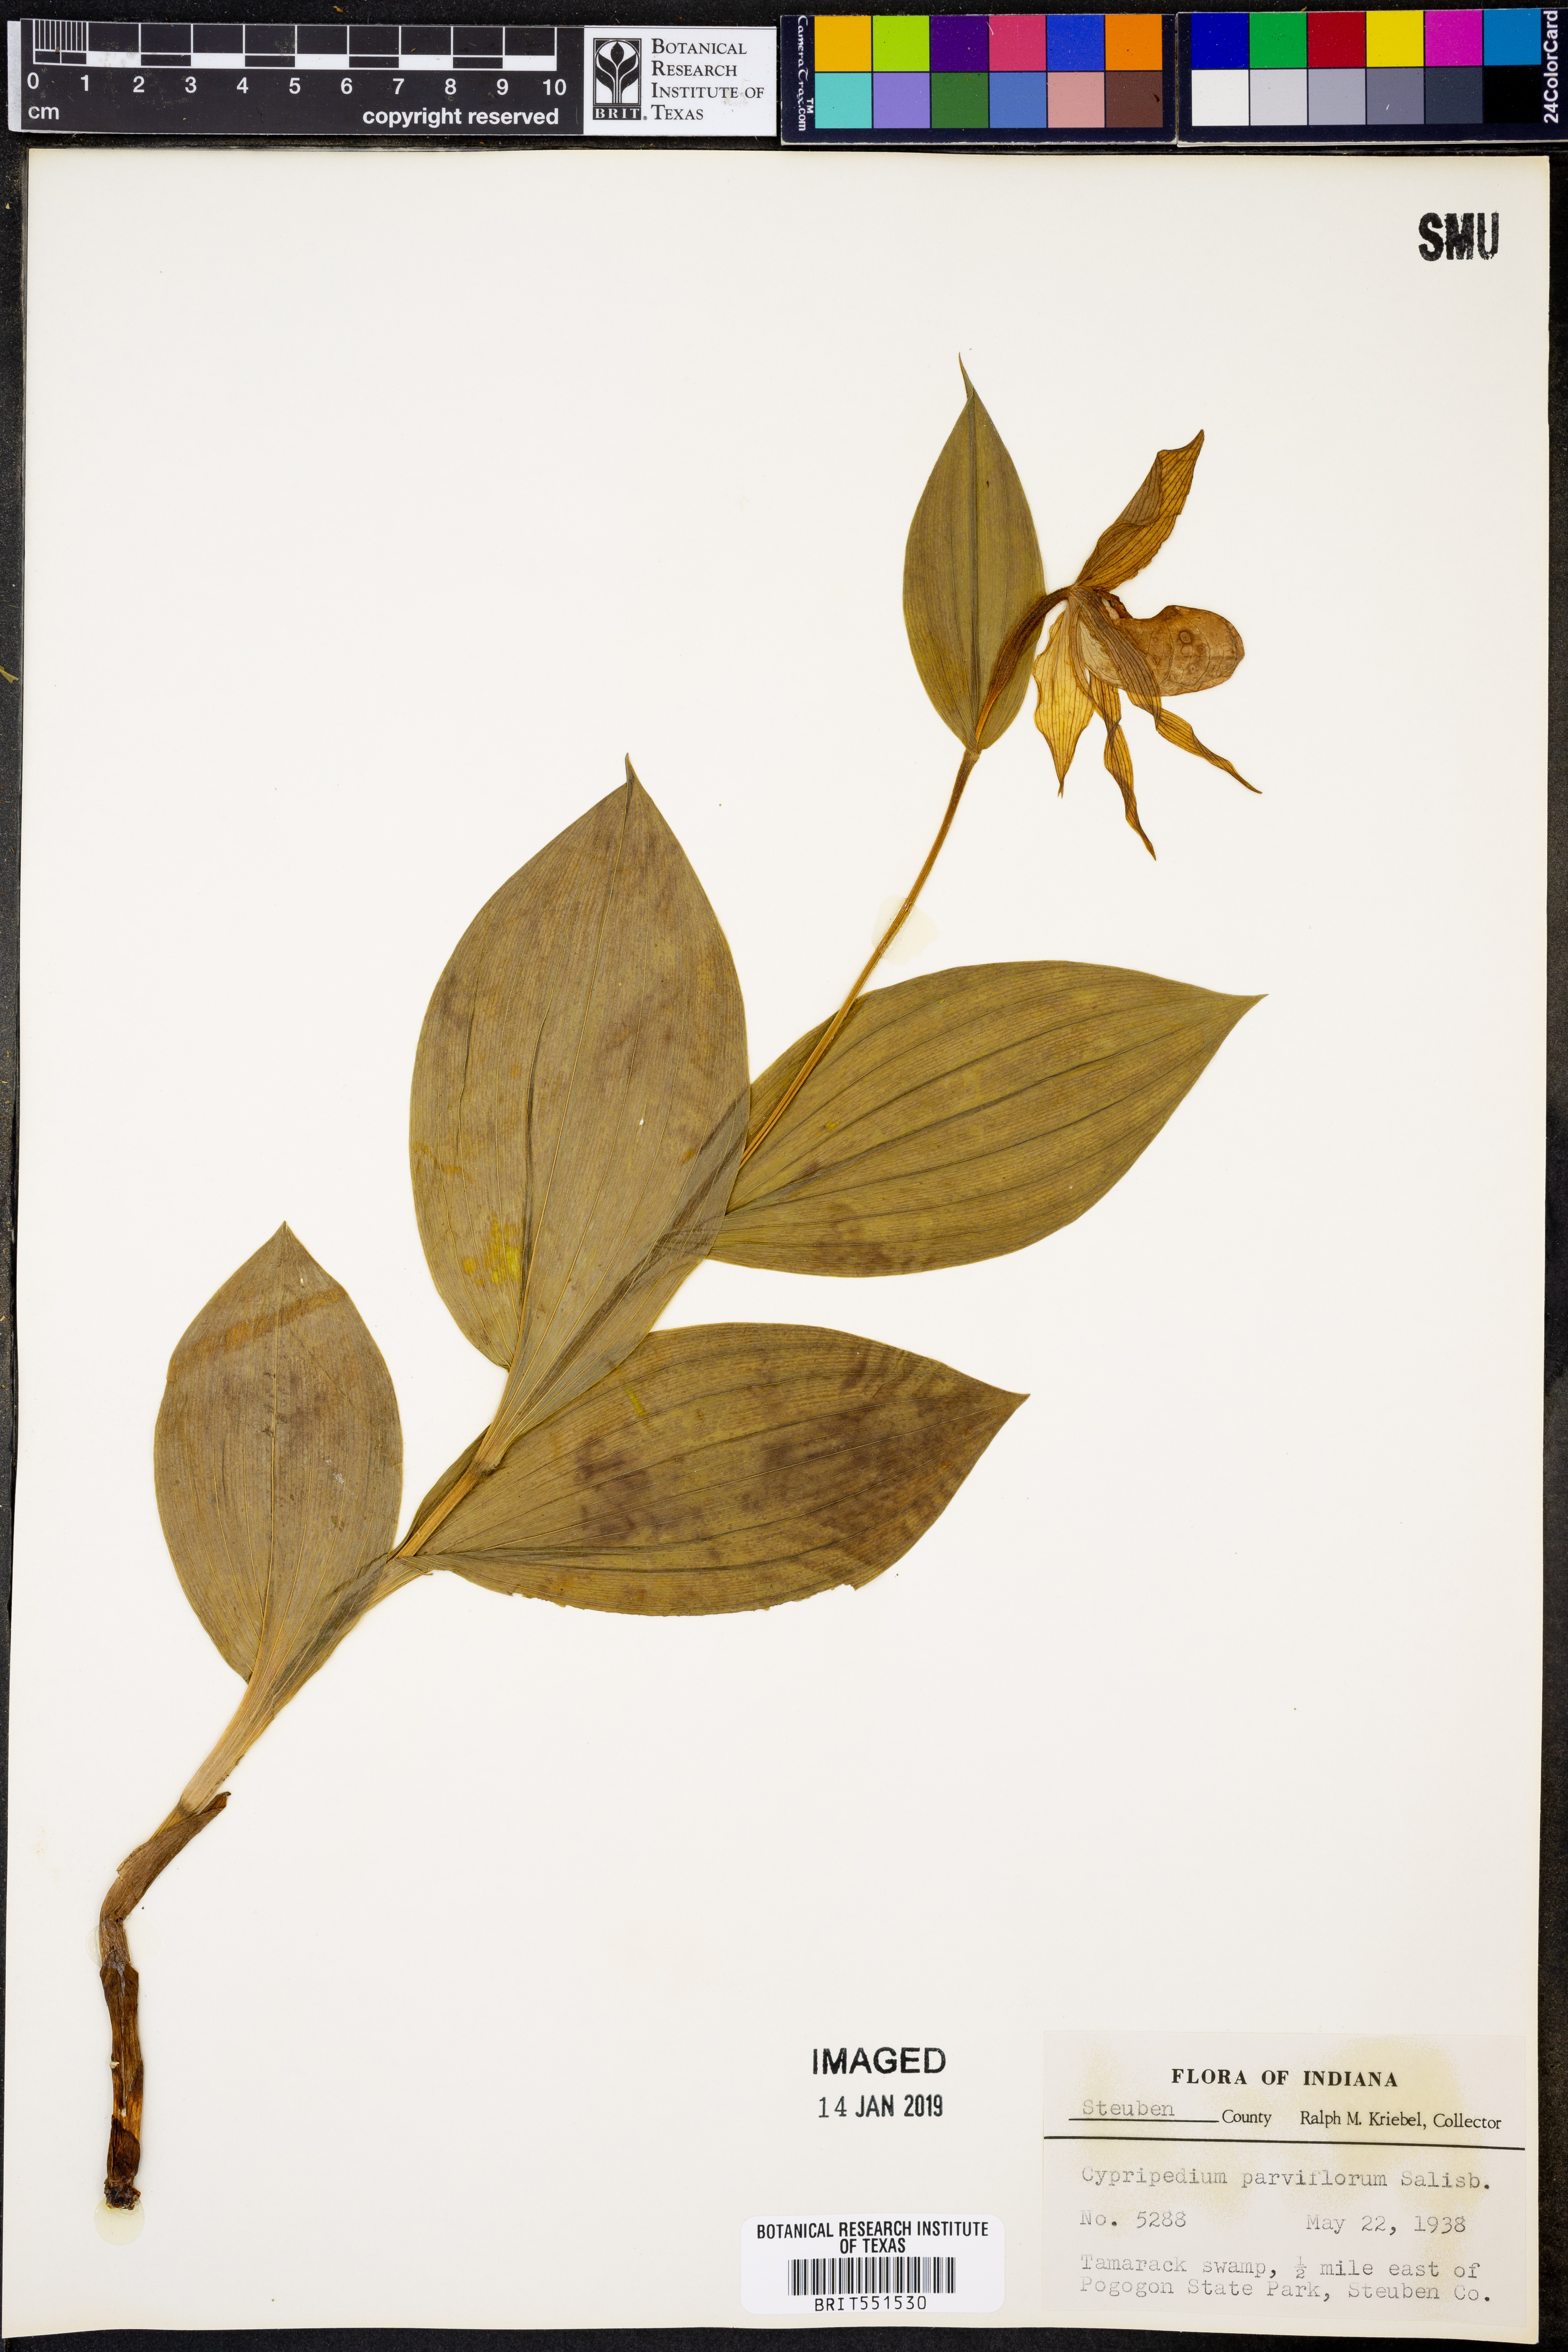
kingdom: Plantae
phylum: Tracheophyta
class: Liliopsida
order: Asparagales
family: Orchidaceae
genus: Cypripedium
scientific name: Cypripedium parviflorum
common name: American yellow lady's-slipper
